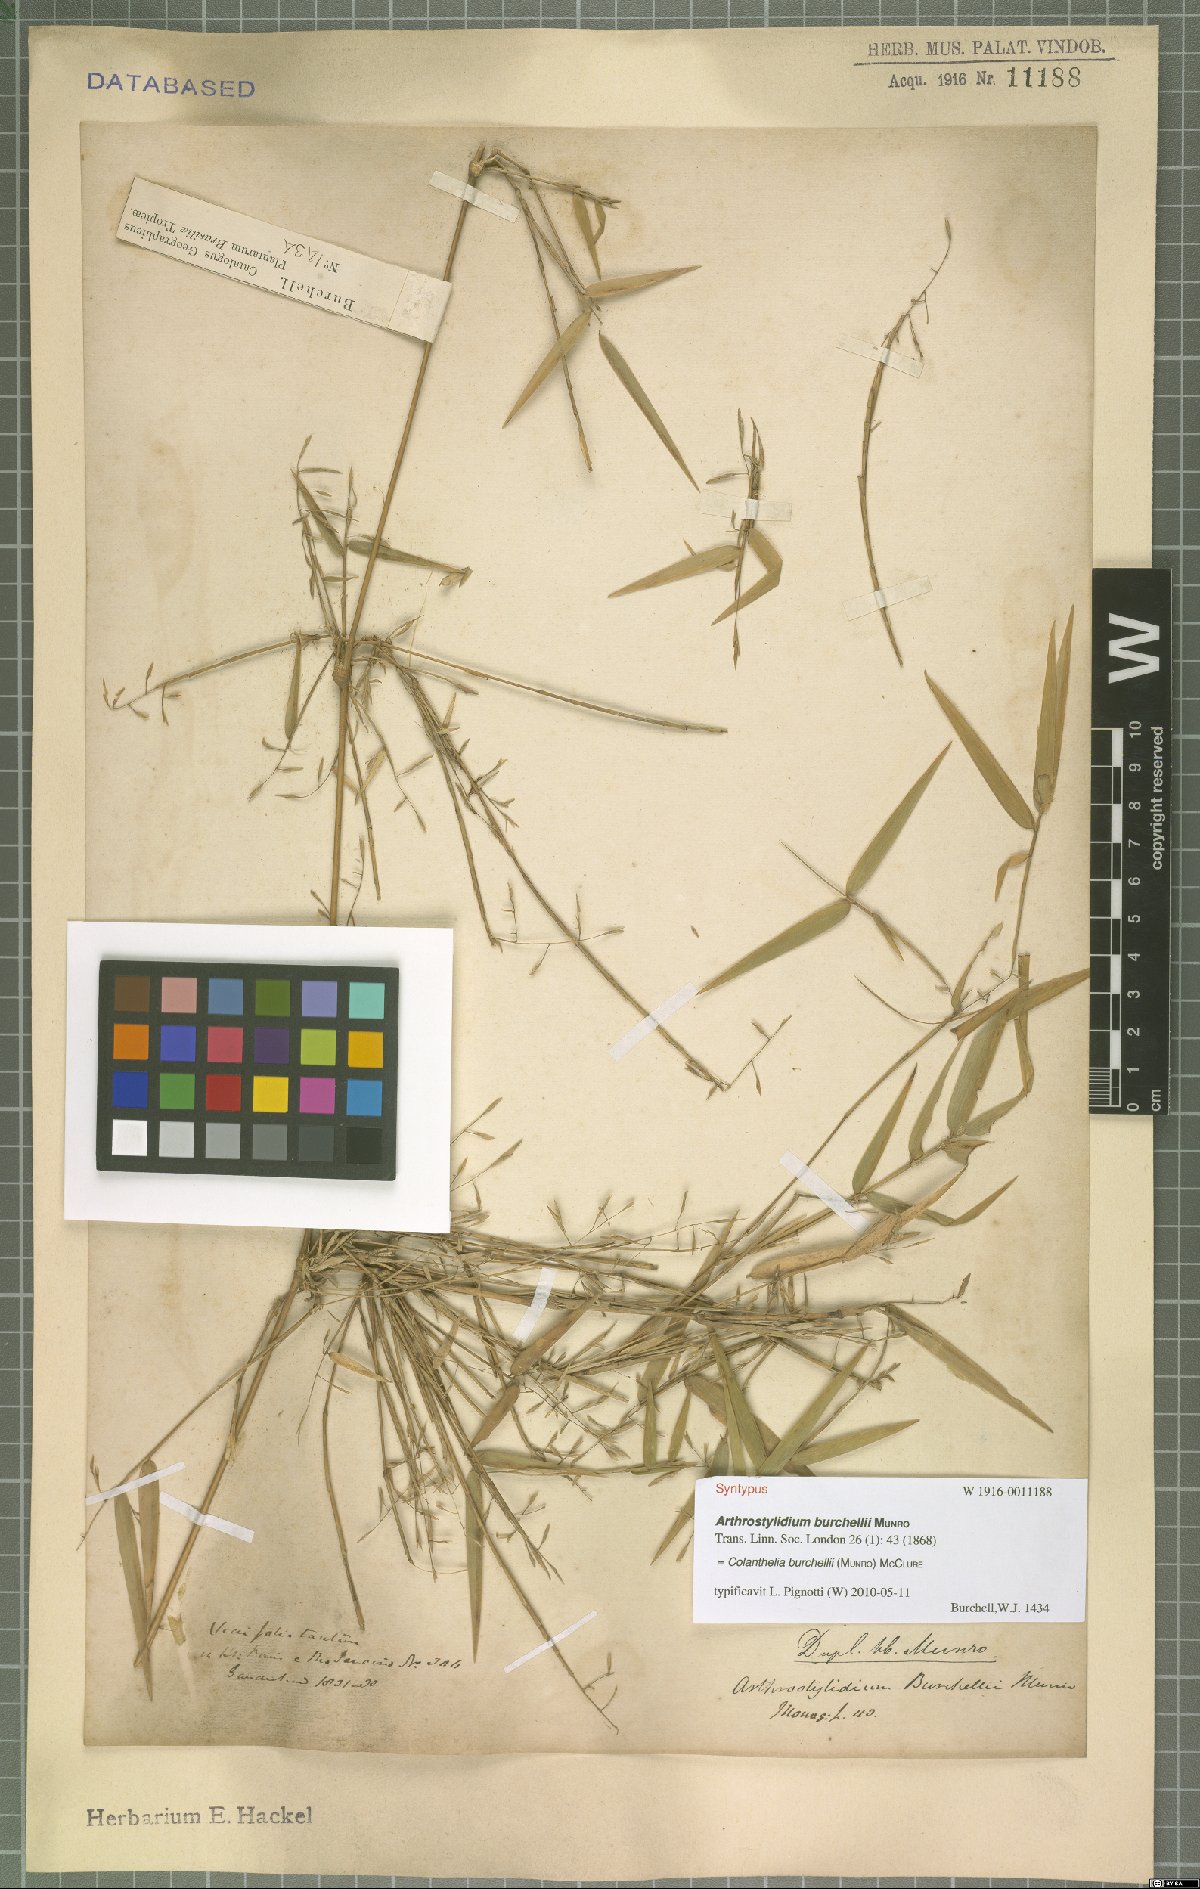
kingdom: Plantae
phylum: Tracheophyta
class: Liliopsida
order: Poales
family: Poaceae
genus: Colanthelia
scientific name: Colanthelia burchellii
